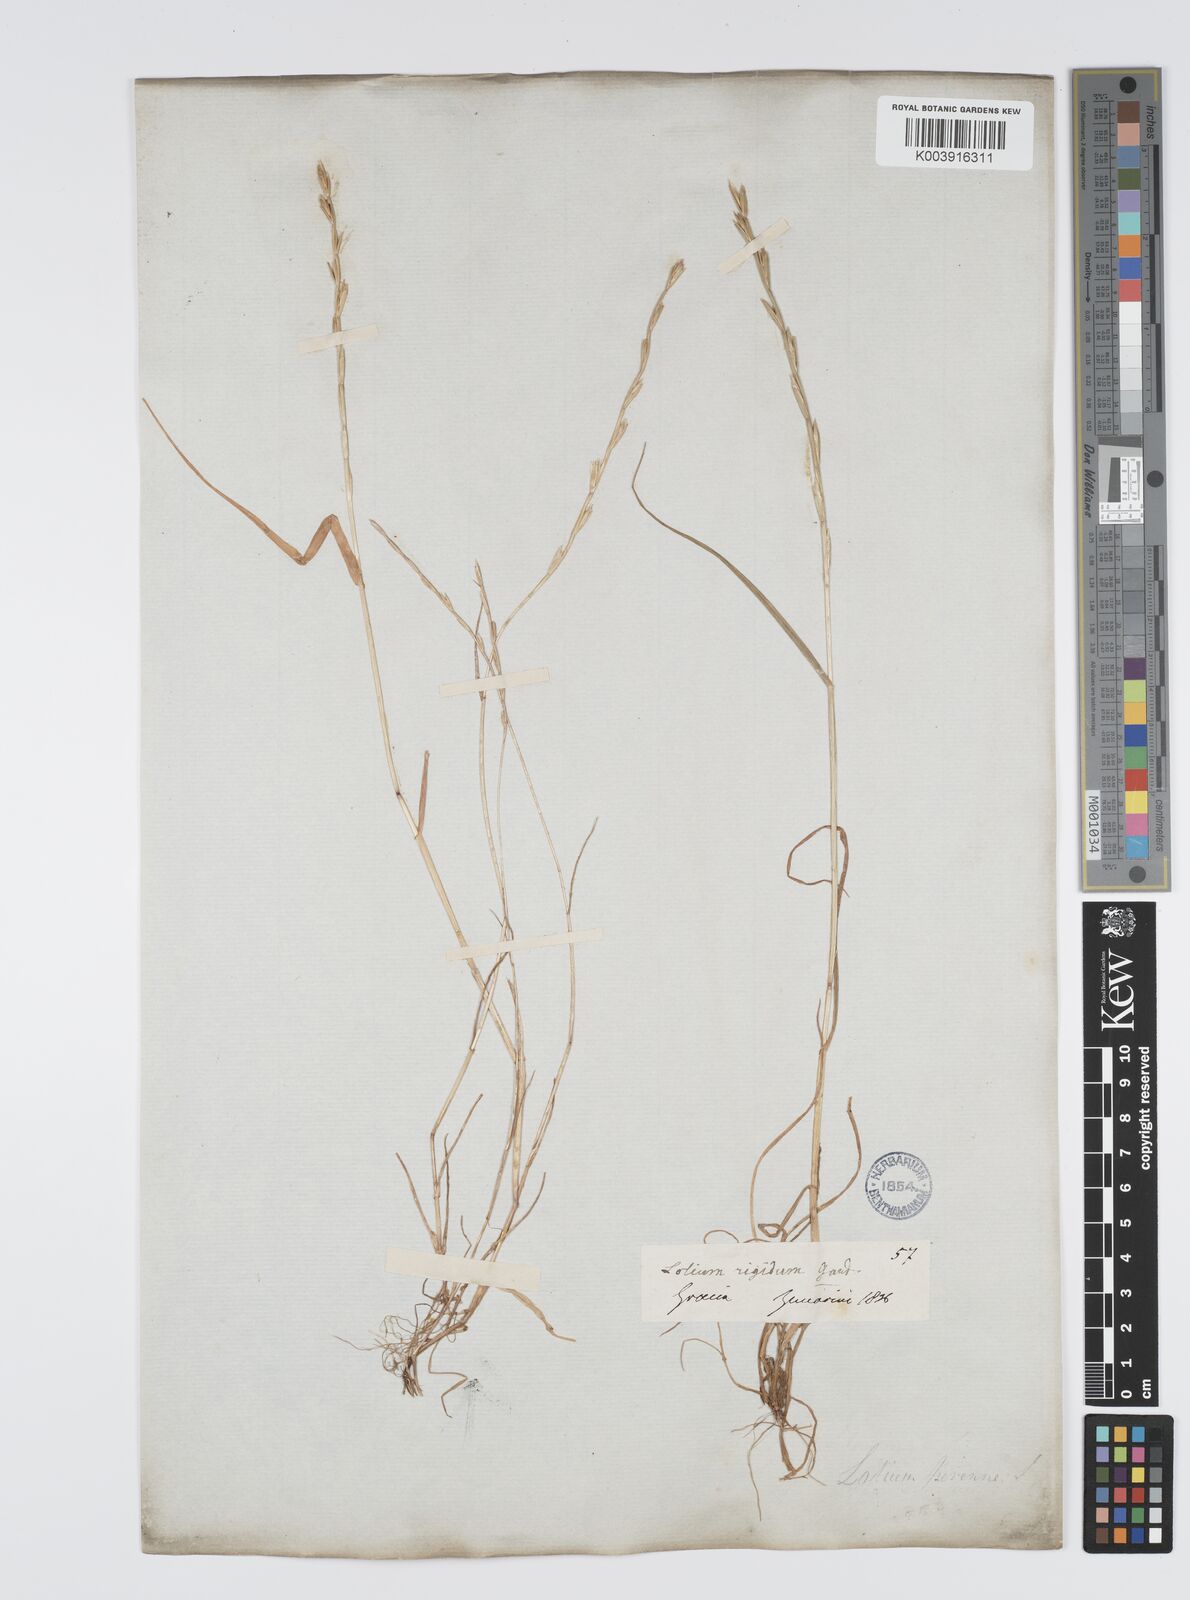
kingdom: Plantae
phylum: Tracheophyta
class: Liliopsida
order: Poales
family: Poaceae
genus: Lolium
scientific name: Lolium rigidum
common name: Wimmera ryegrass
